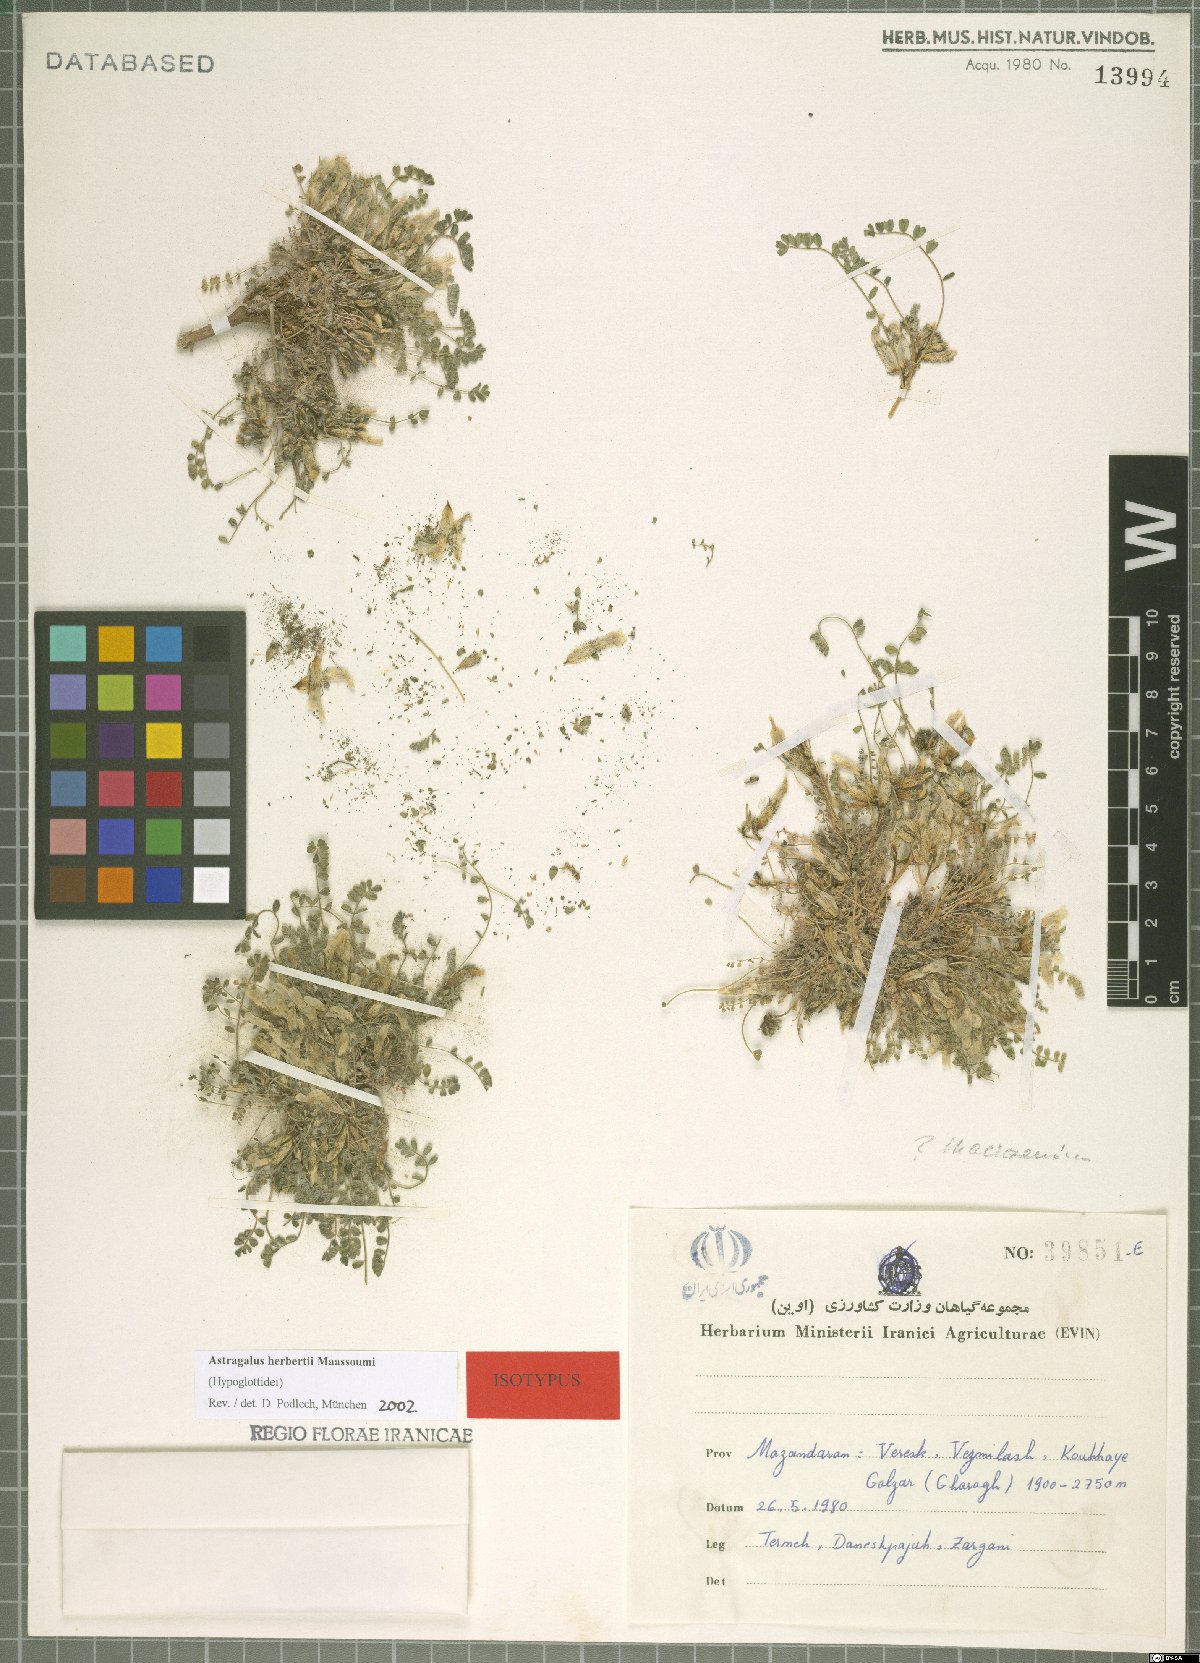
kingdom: Plantae
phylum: Tracheophyta
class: Magnoliopsida
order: Fabales
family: Fabaceae
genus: Astragalus
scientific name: Astragalus herbertii
